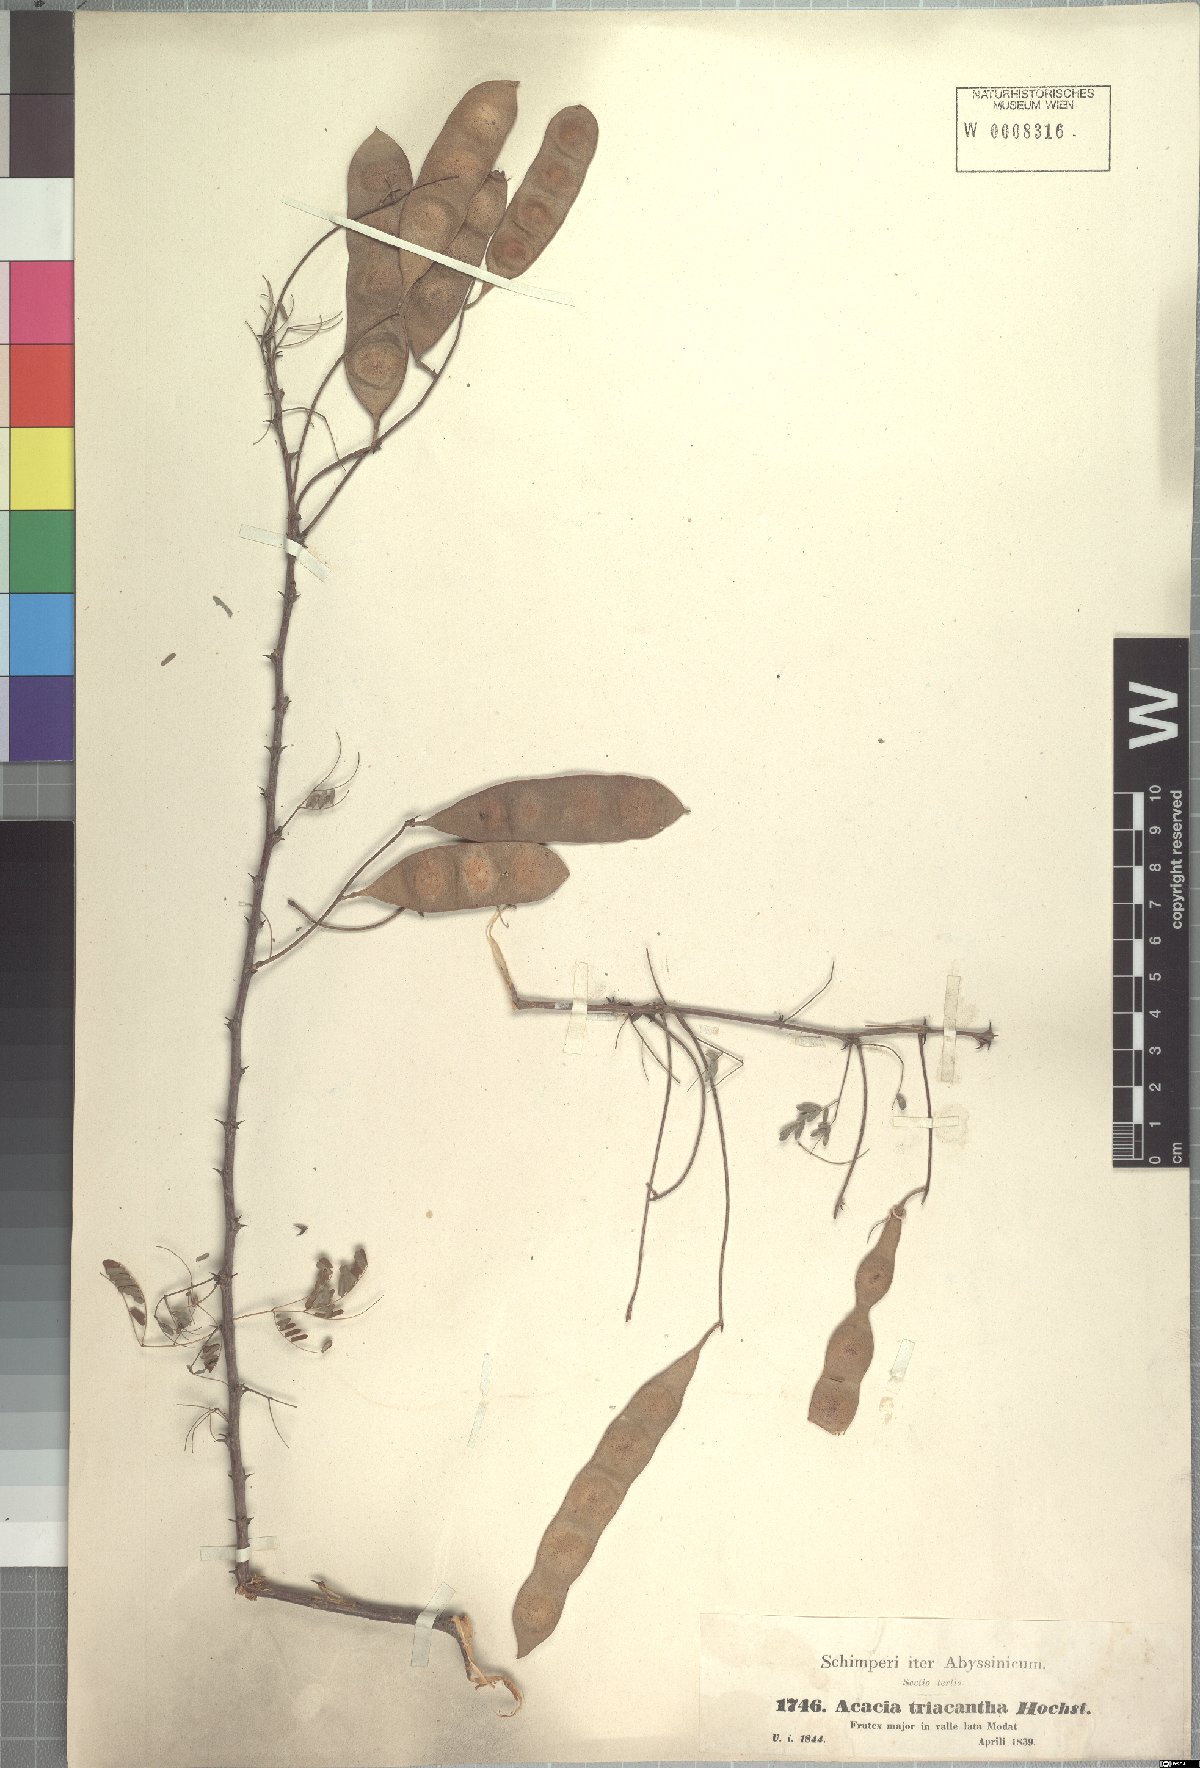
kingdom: Plantae
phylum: Tracheophyta
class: Magnoliopsida
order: Fabales
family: Fabaceae
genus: Senegalia
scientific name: Senegalia asak
